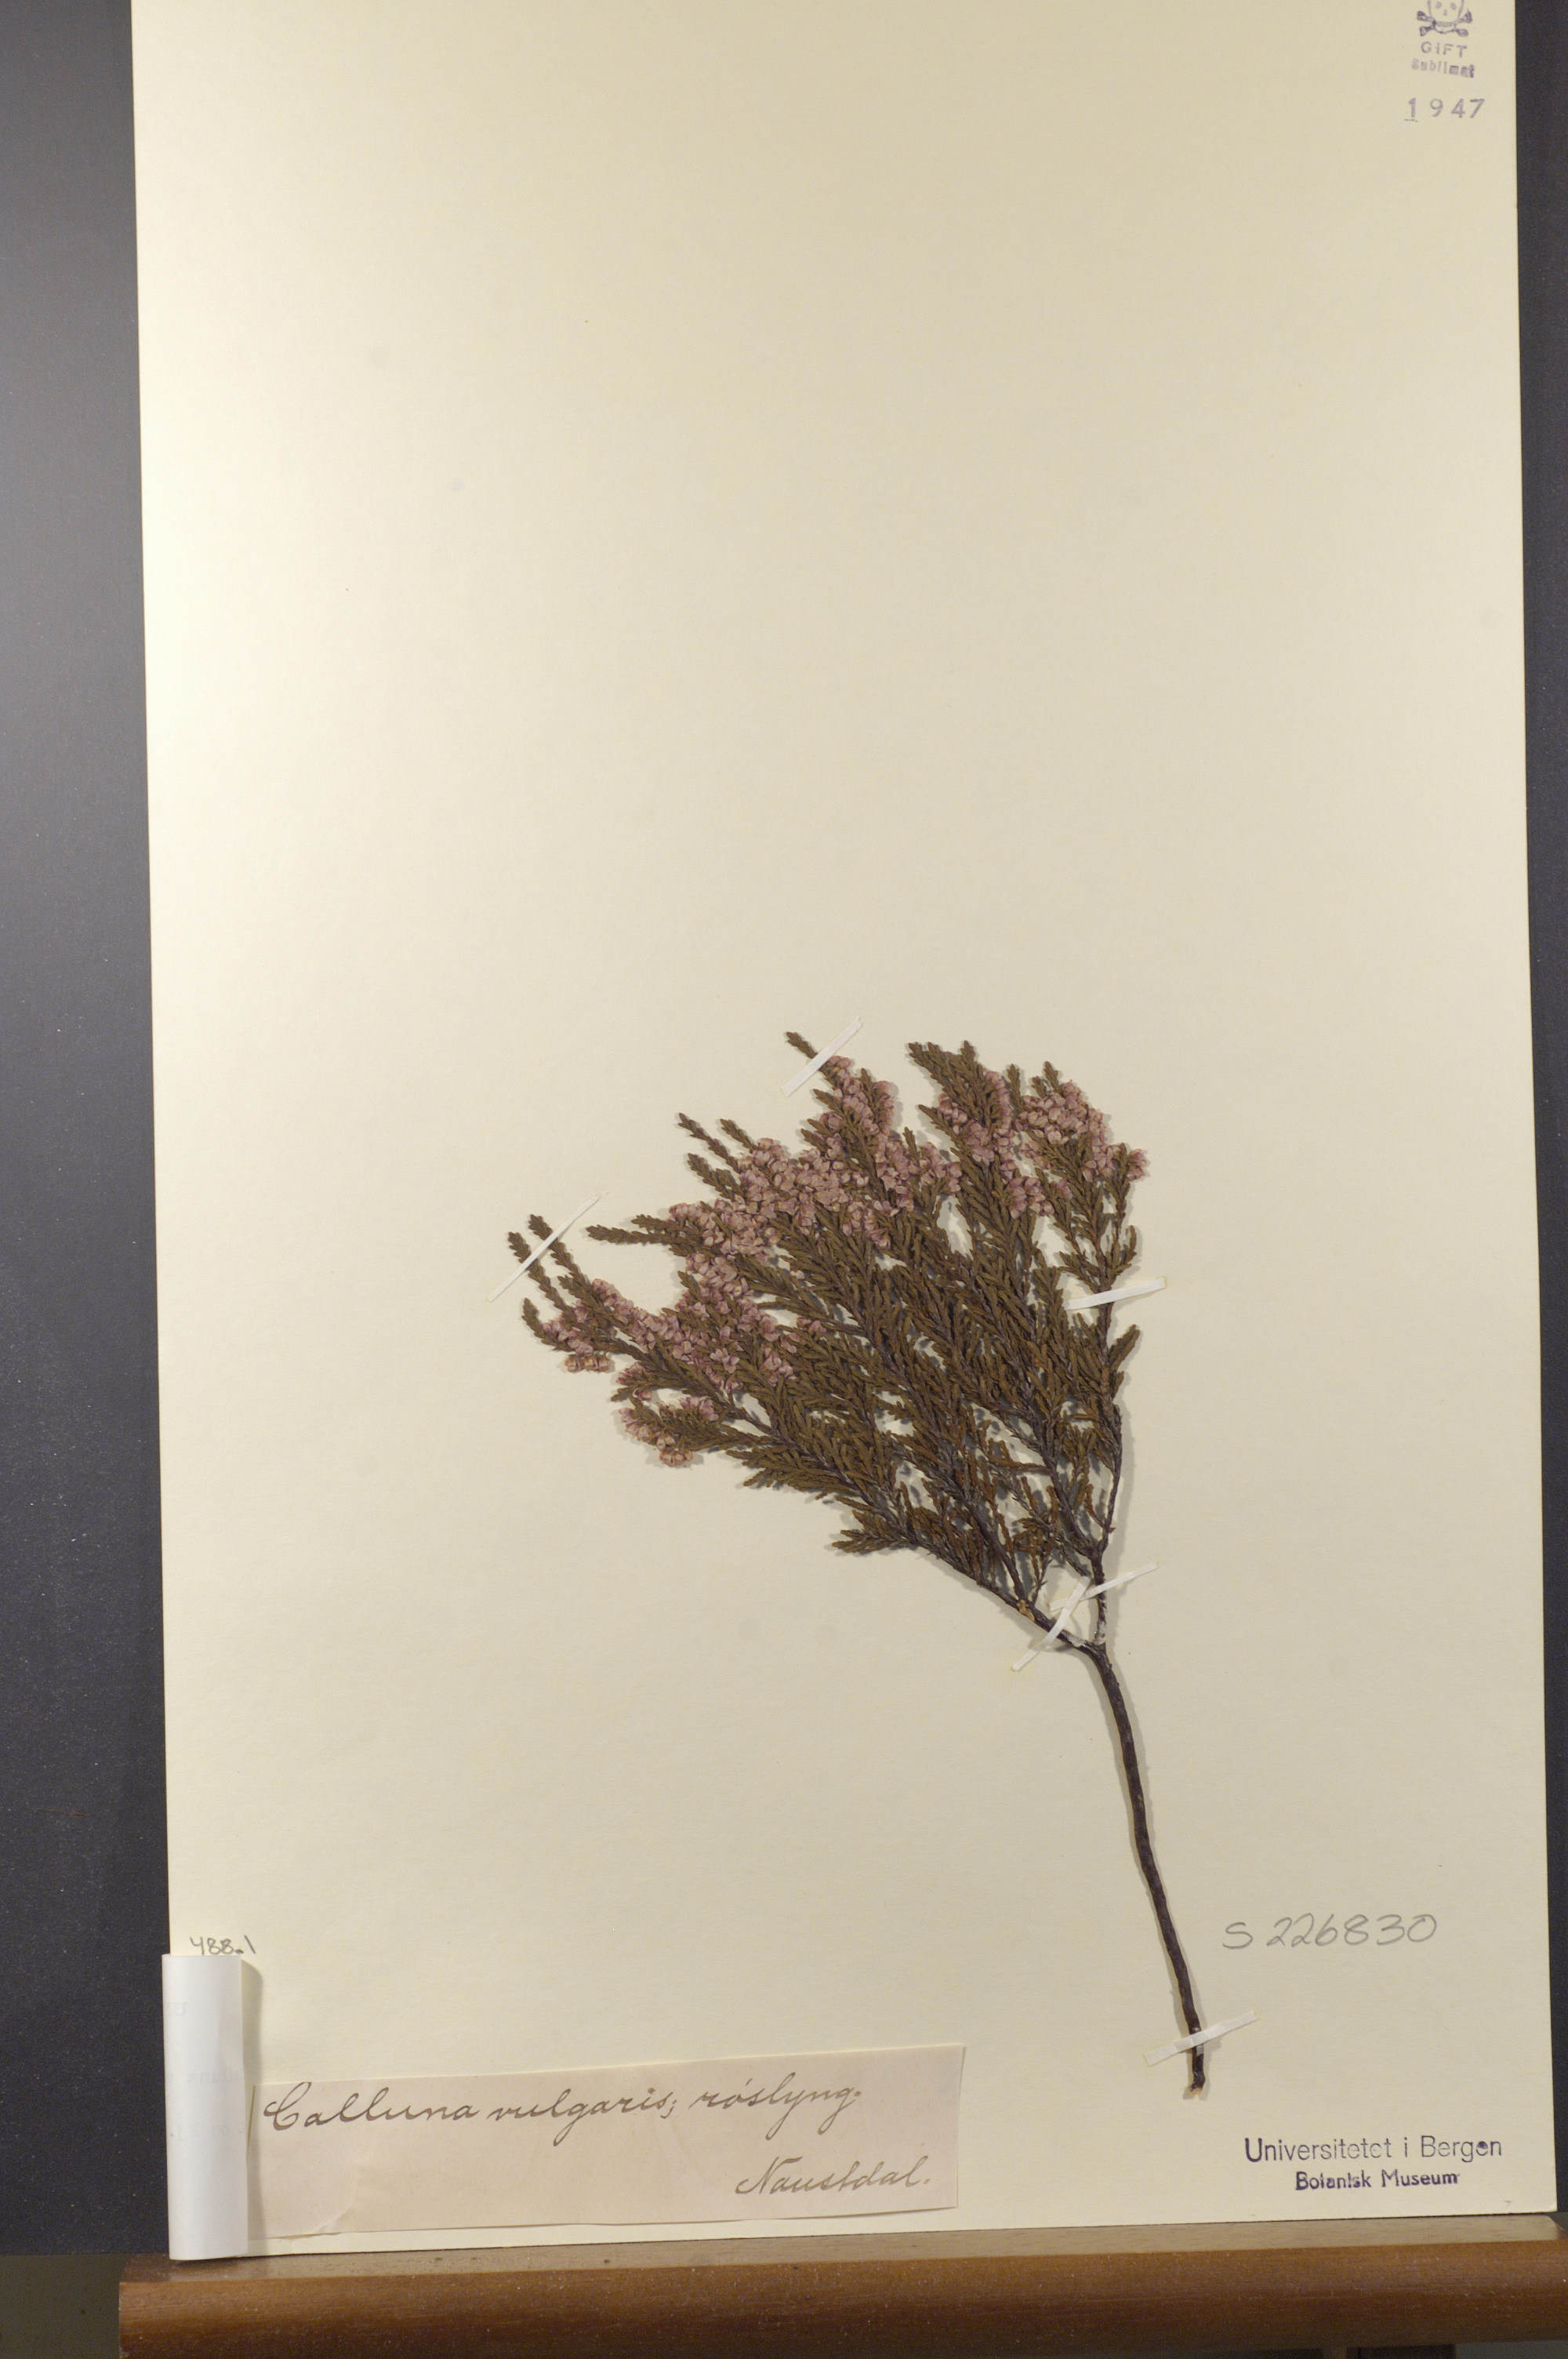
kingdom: Plantae
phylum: Tracheophyta
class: Magnoliopsida
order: Ericales
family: Ericaceae
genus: Calluna
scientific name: Calluna vulgaris
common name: Heather
